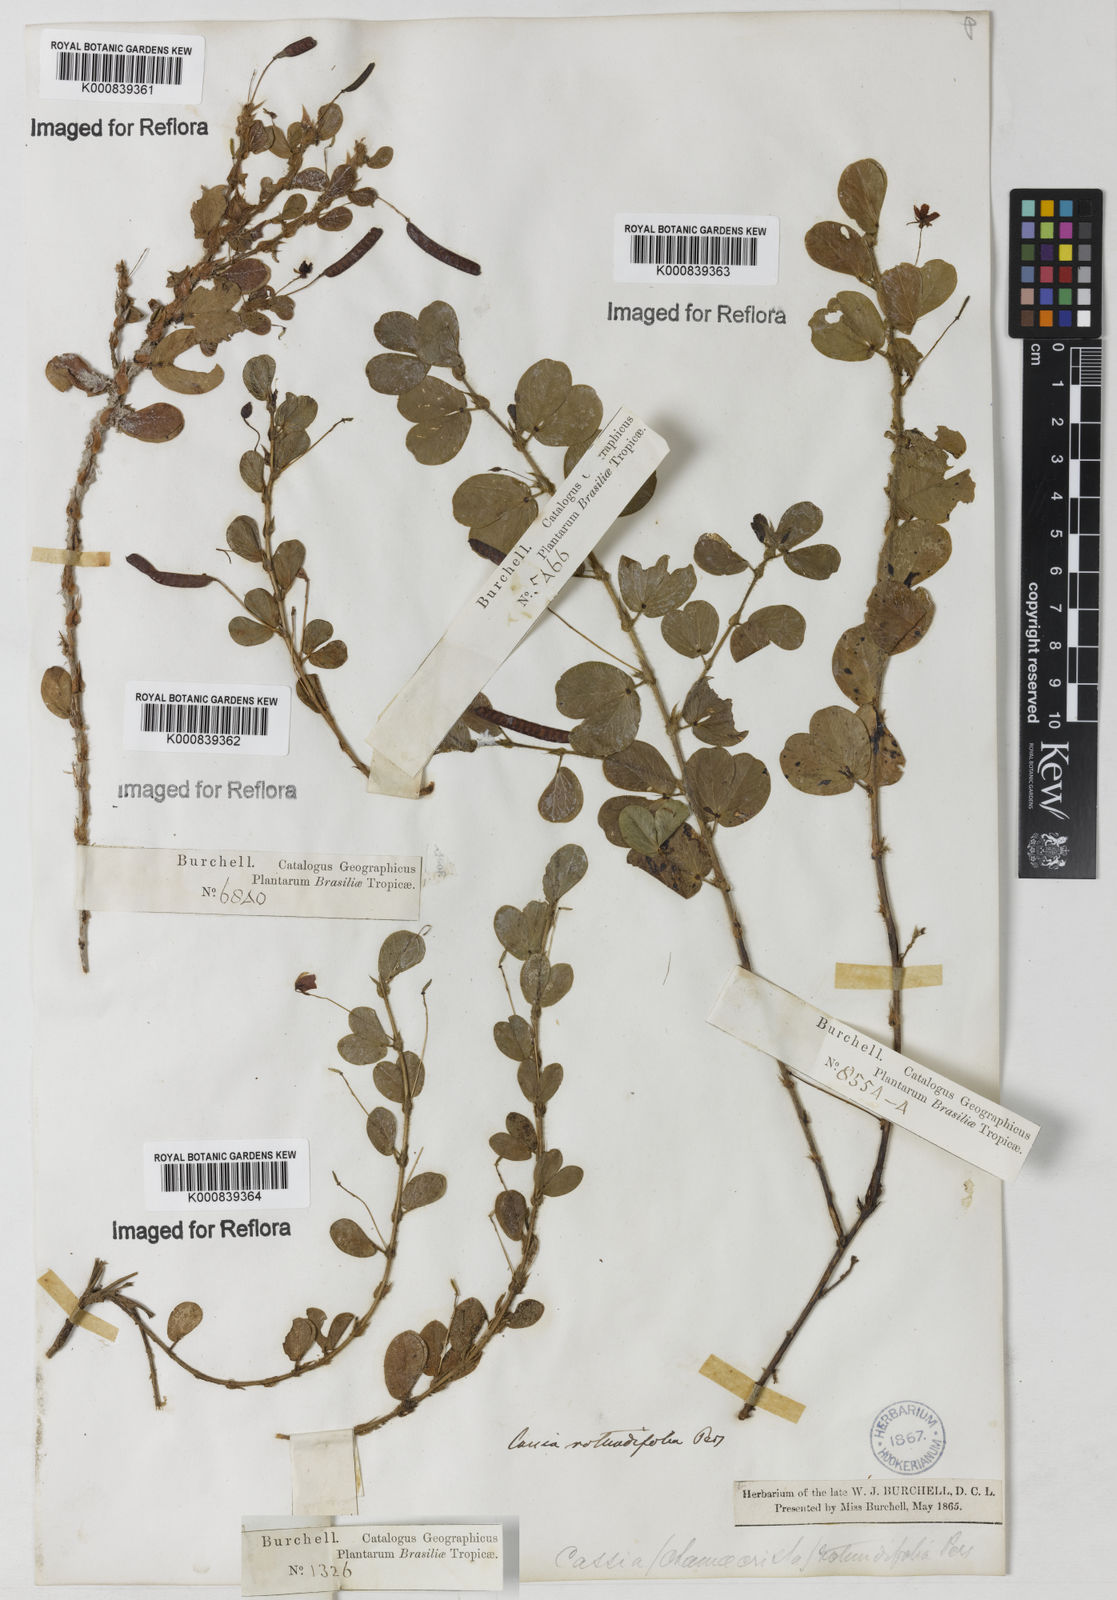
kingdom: Plantae
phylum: Tracheophyta
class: Magnoliopsida
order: Fabales
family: Fabaceae
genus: Chamaecrista
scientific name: Chamaecrista rotundifolia
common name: Round-leaf cassia
